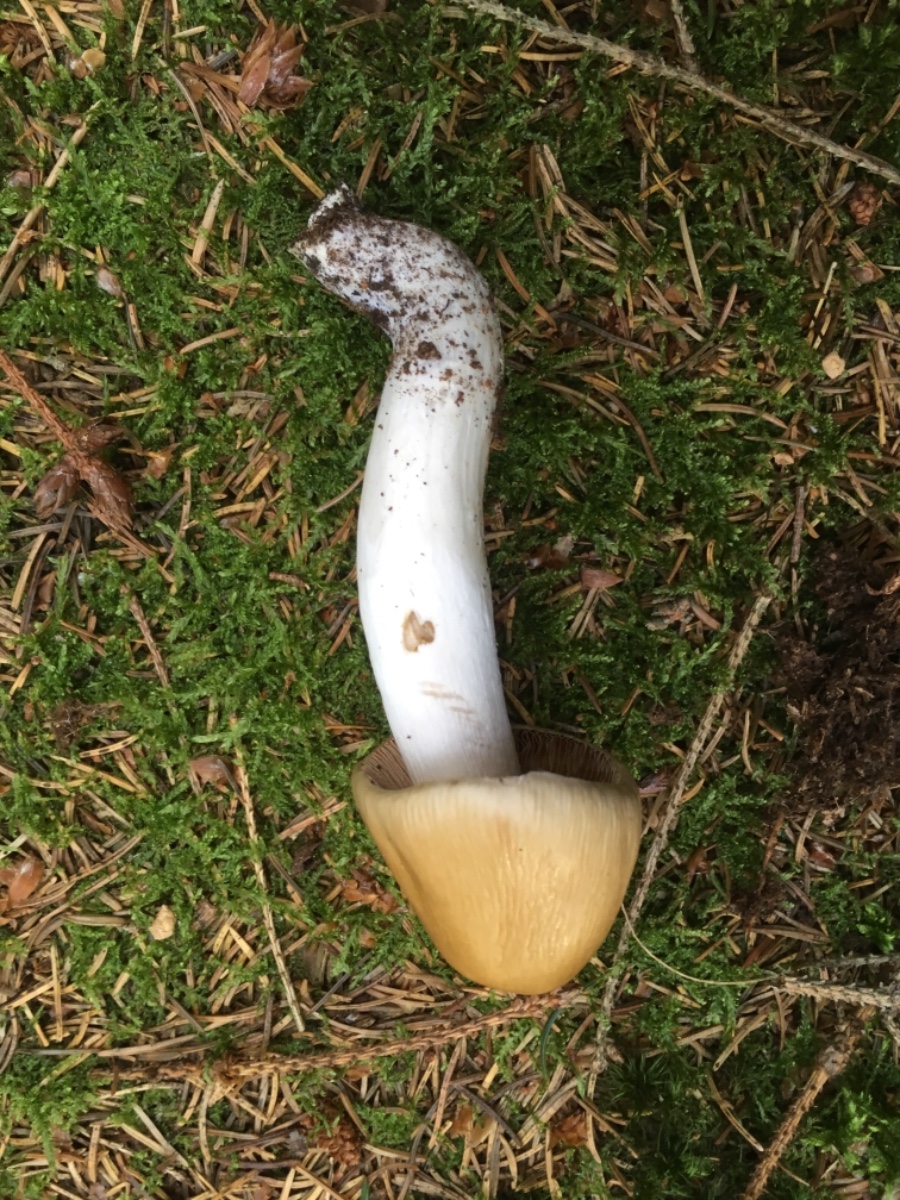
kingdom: Fungi
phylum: Basidiomycota
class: Agaricomycetes
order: Agaricales
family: Cortinariaceae
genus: Cortinarius
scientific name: Cortinarius elatior
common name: høj slørhat
